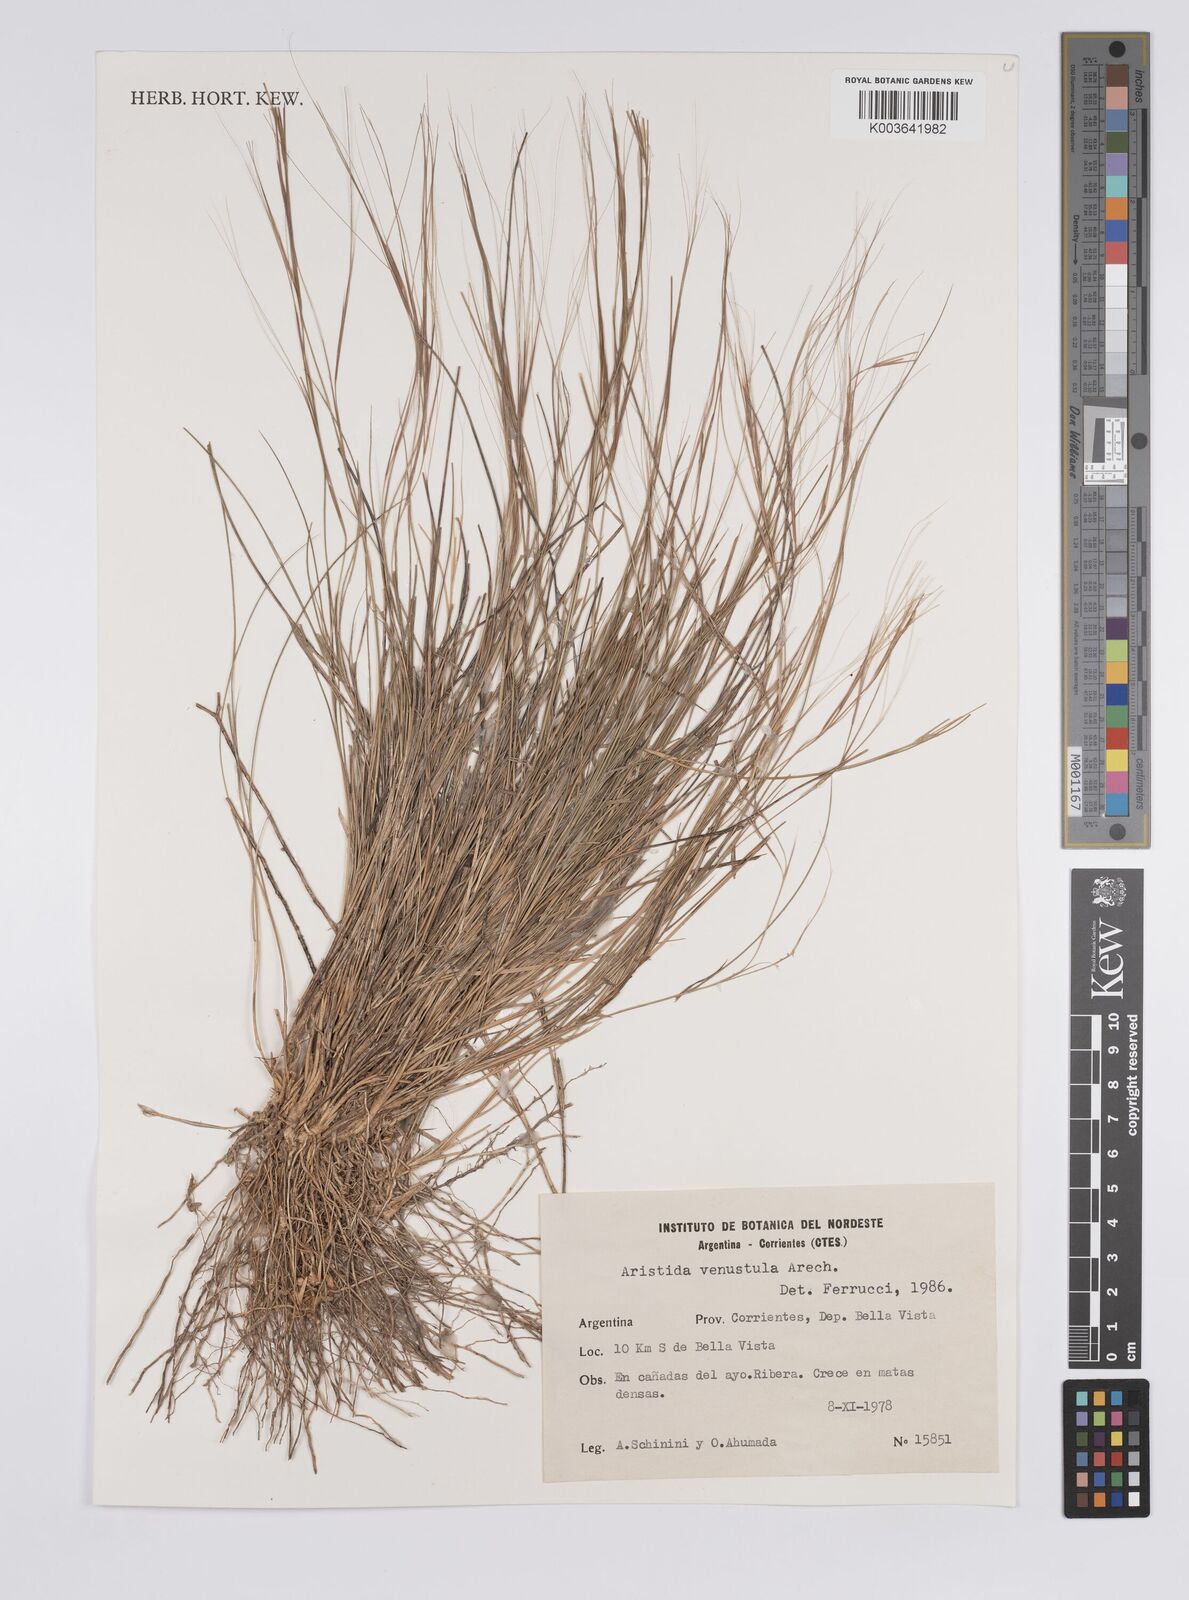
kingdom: Plantae
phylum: Tracheophyta
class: Liliopsida
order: Poales
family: Poaceae
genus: Aristida
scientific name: Aristida venustula
